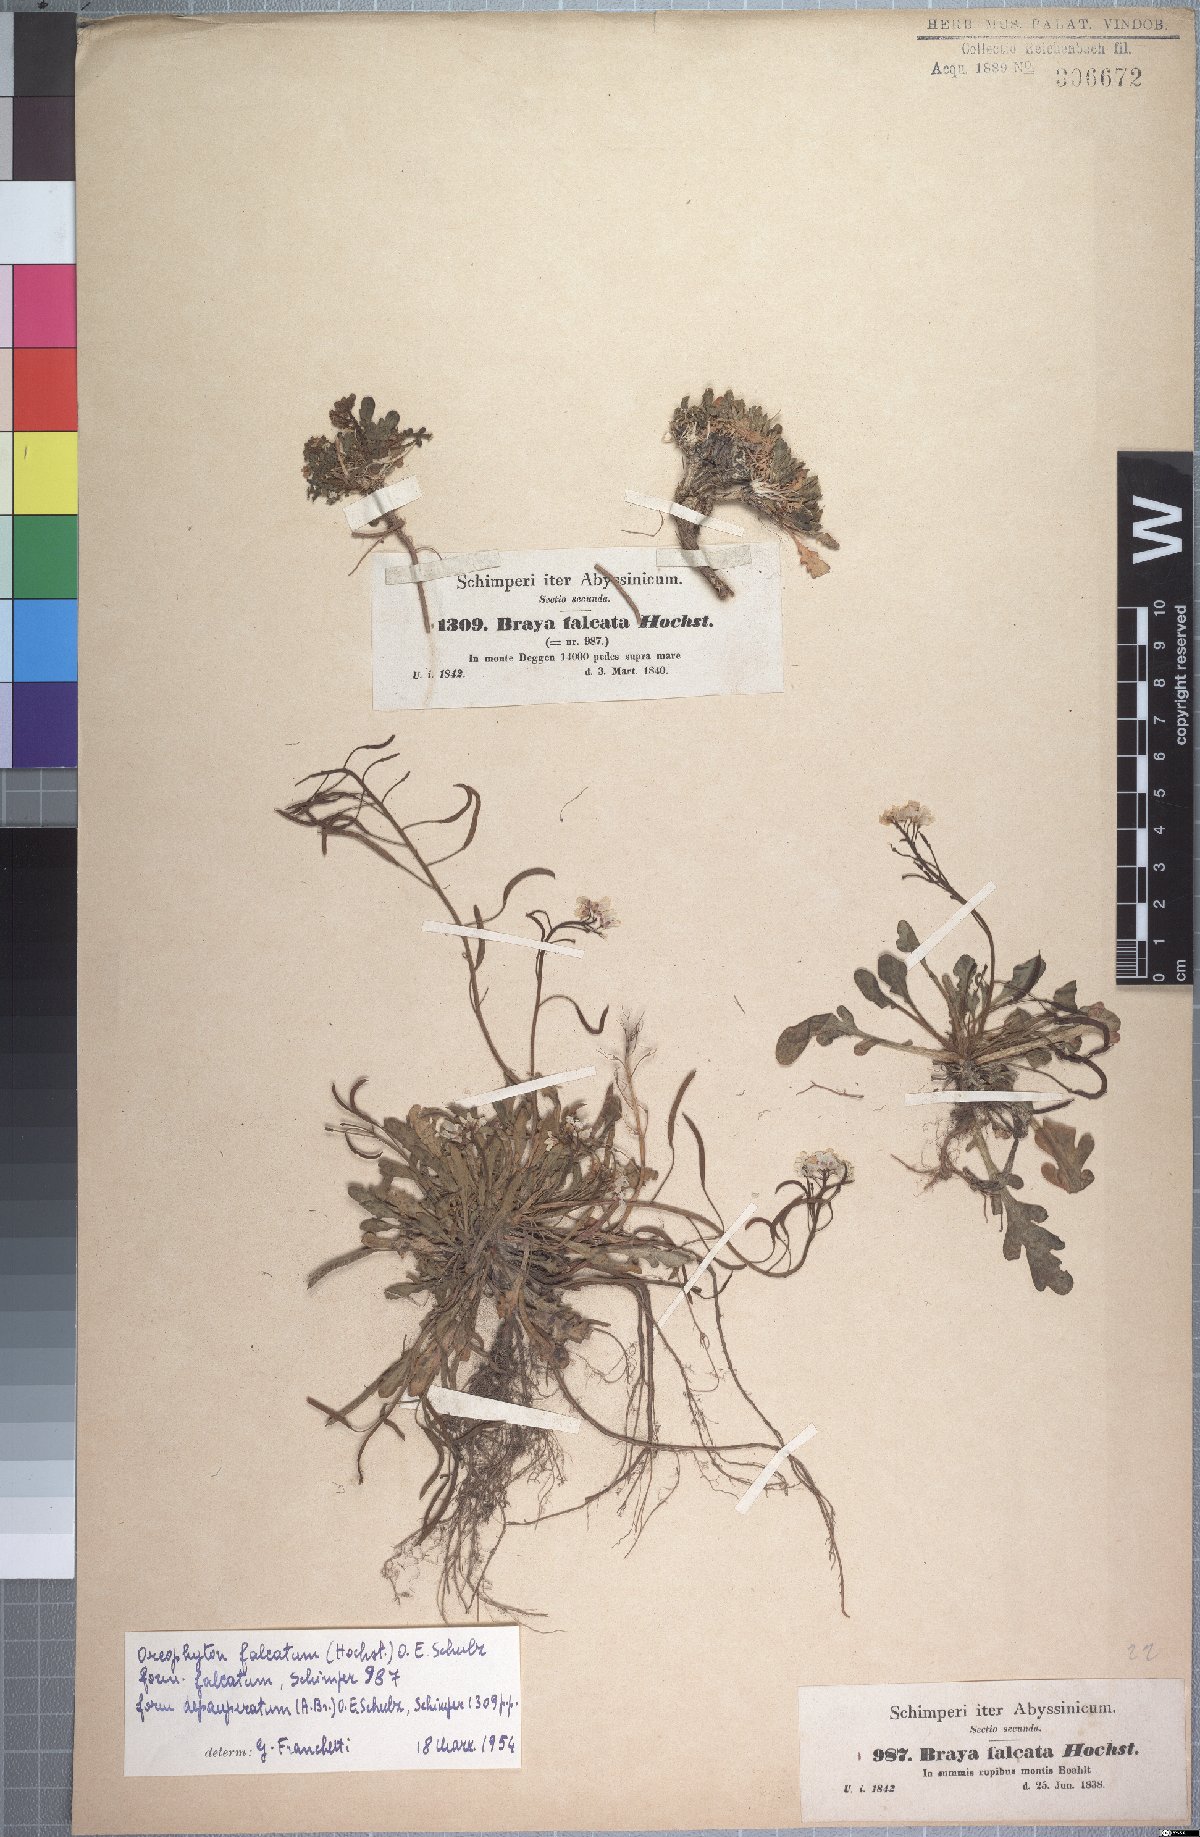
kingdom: Plantae
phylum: Tracheophyta
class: Magnoliopsida
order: Brassicales
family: Brassicaceae
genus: Oreophyton
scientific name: Oreophyton falcatum
